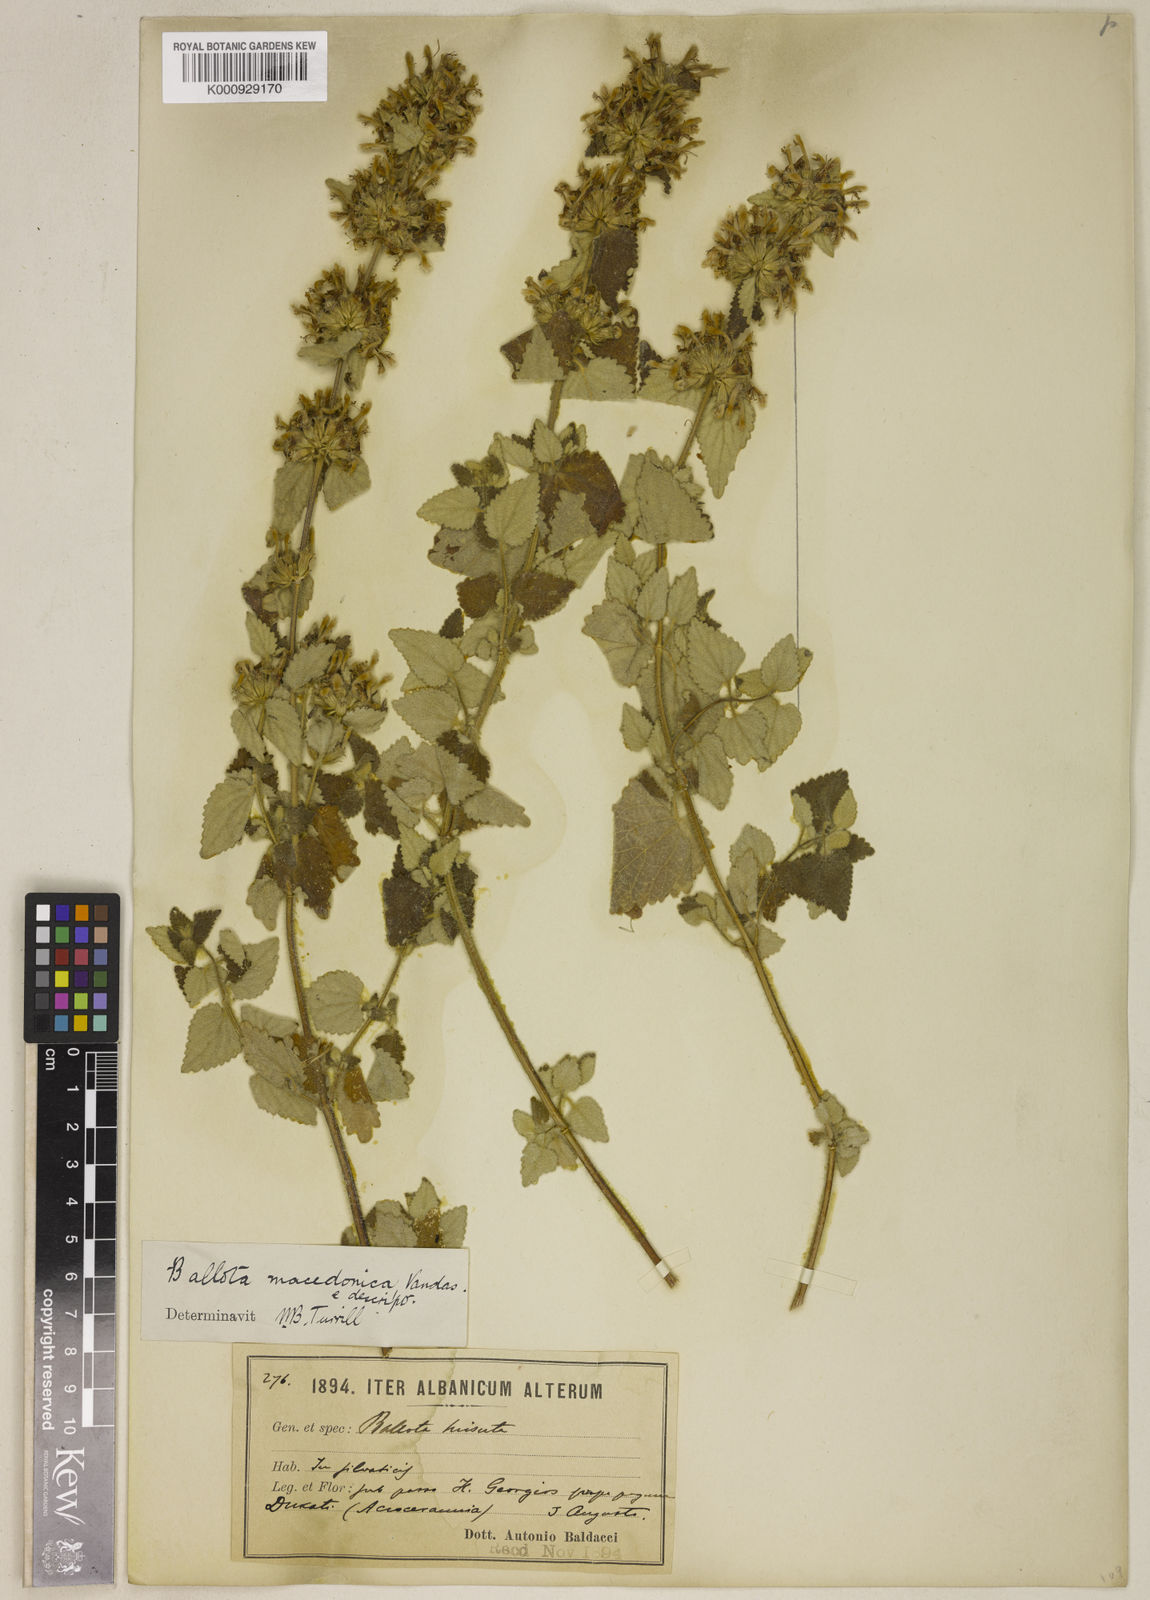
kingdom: Plantae
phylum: Tracheophyta
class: Magnoliopsida
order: Lamiales
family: Lamiaceae
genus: Ballota
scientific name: Ballota
